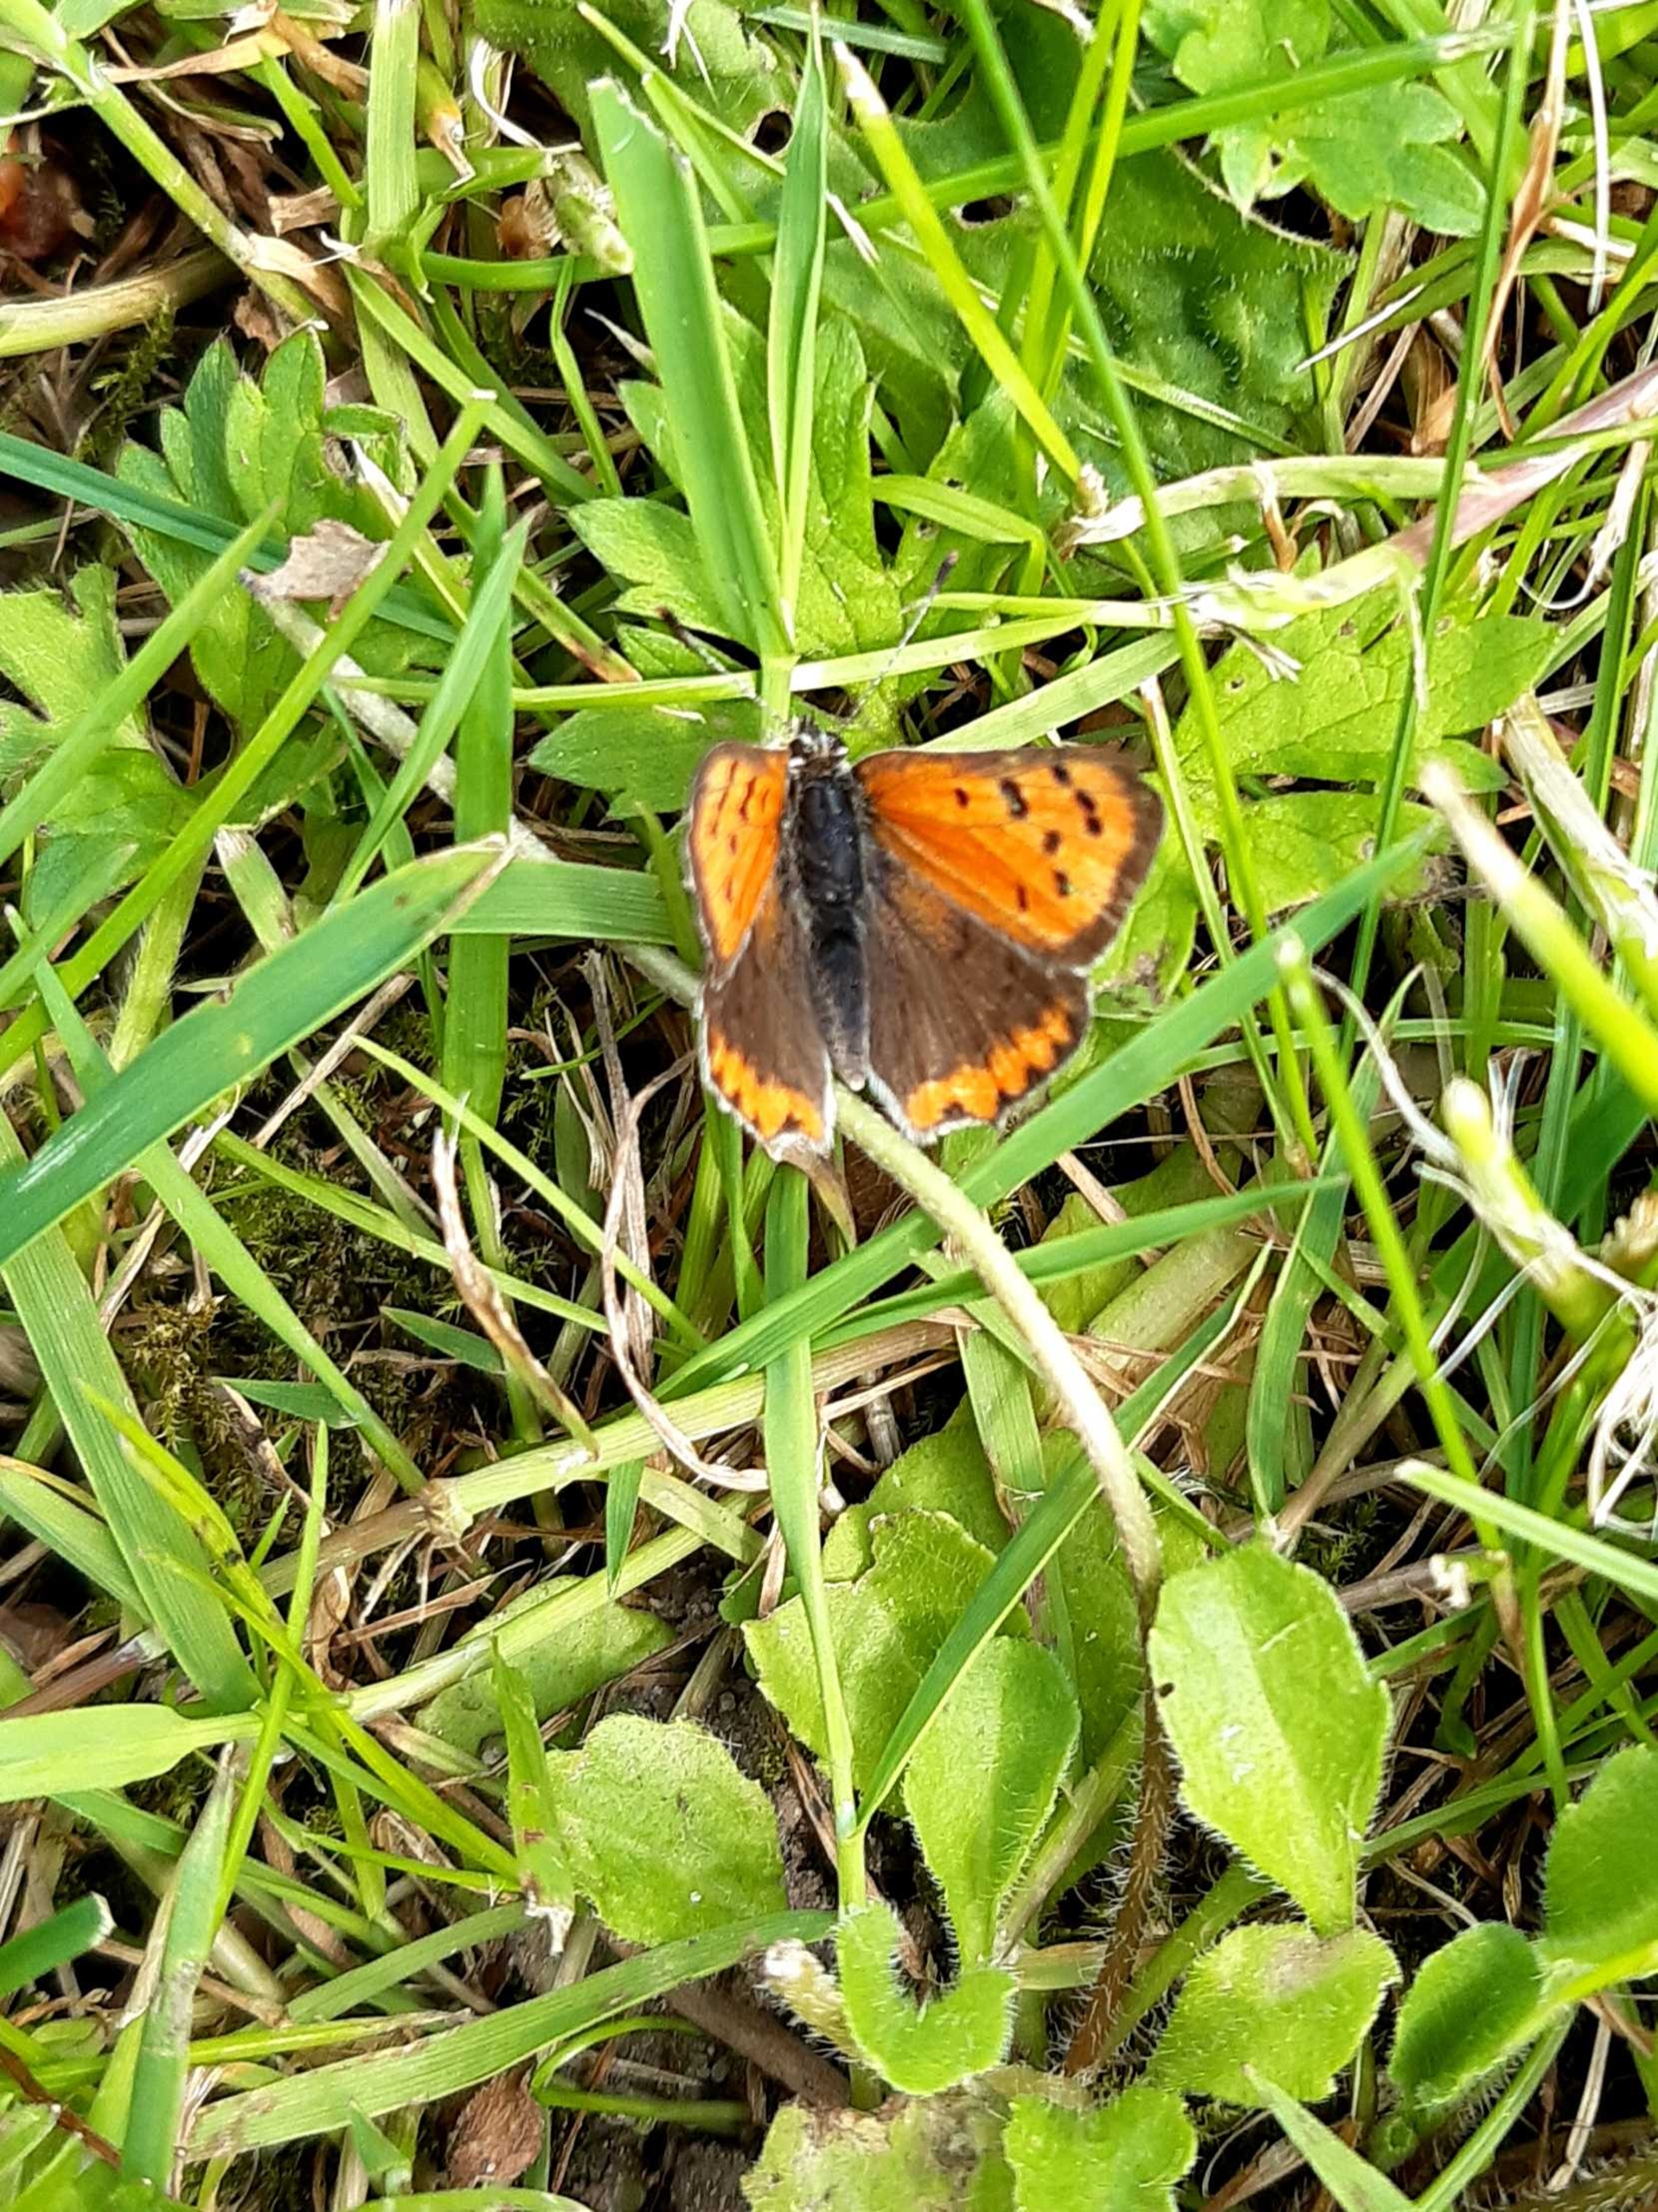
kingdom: Animalia
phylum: Arthropoda
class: Insecta
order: Lepidoptera
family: Lycaenidae
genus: Lycaena
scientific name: Lycaena phlaeas
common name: Lille ildfugl
